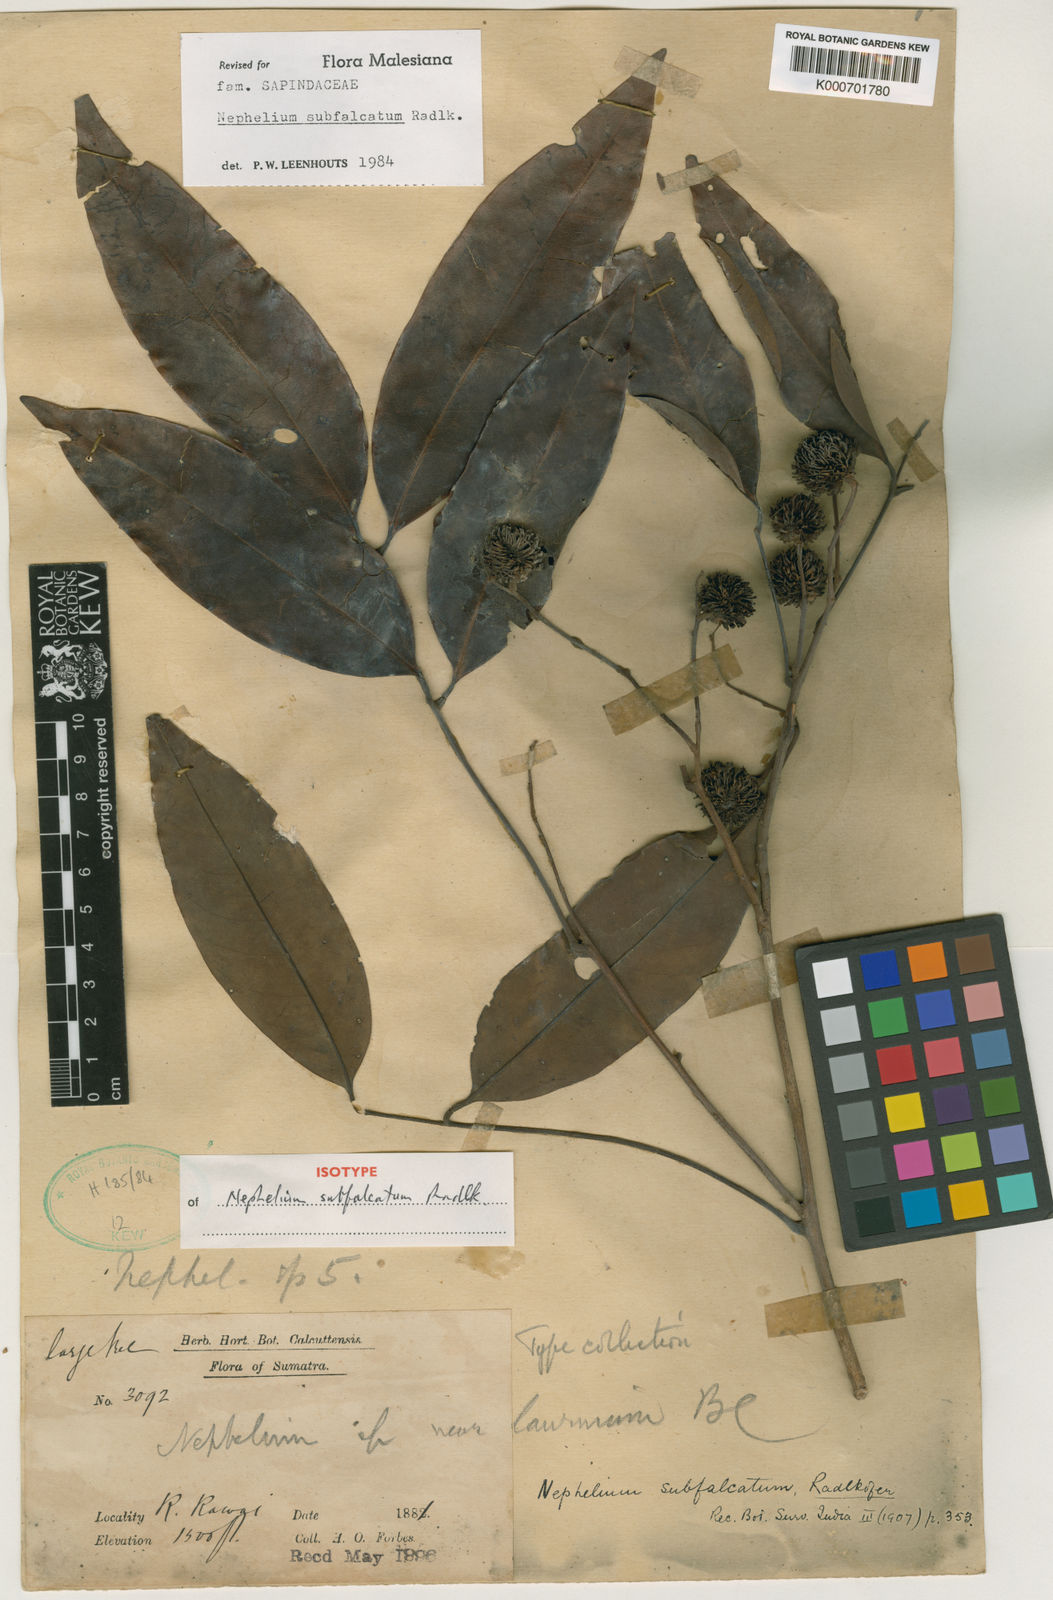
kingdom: Plantae
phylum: Tracheophyta
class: Magnoliopsida
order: Sapindales
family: Sapindaceae
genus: Nephelium
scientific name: Nephelium subfalcatum
